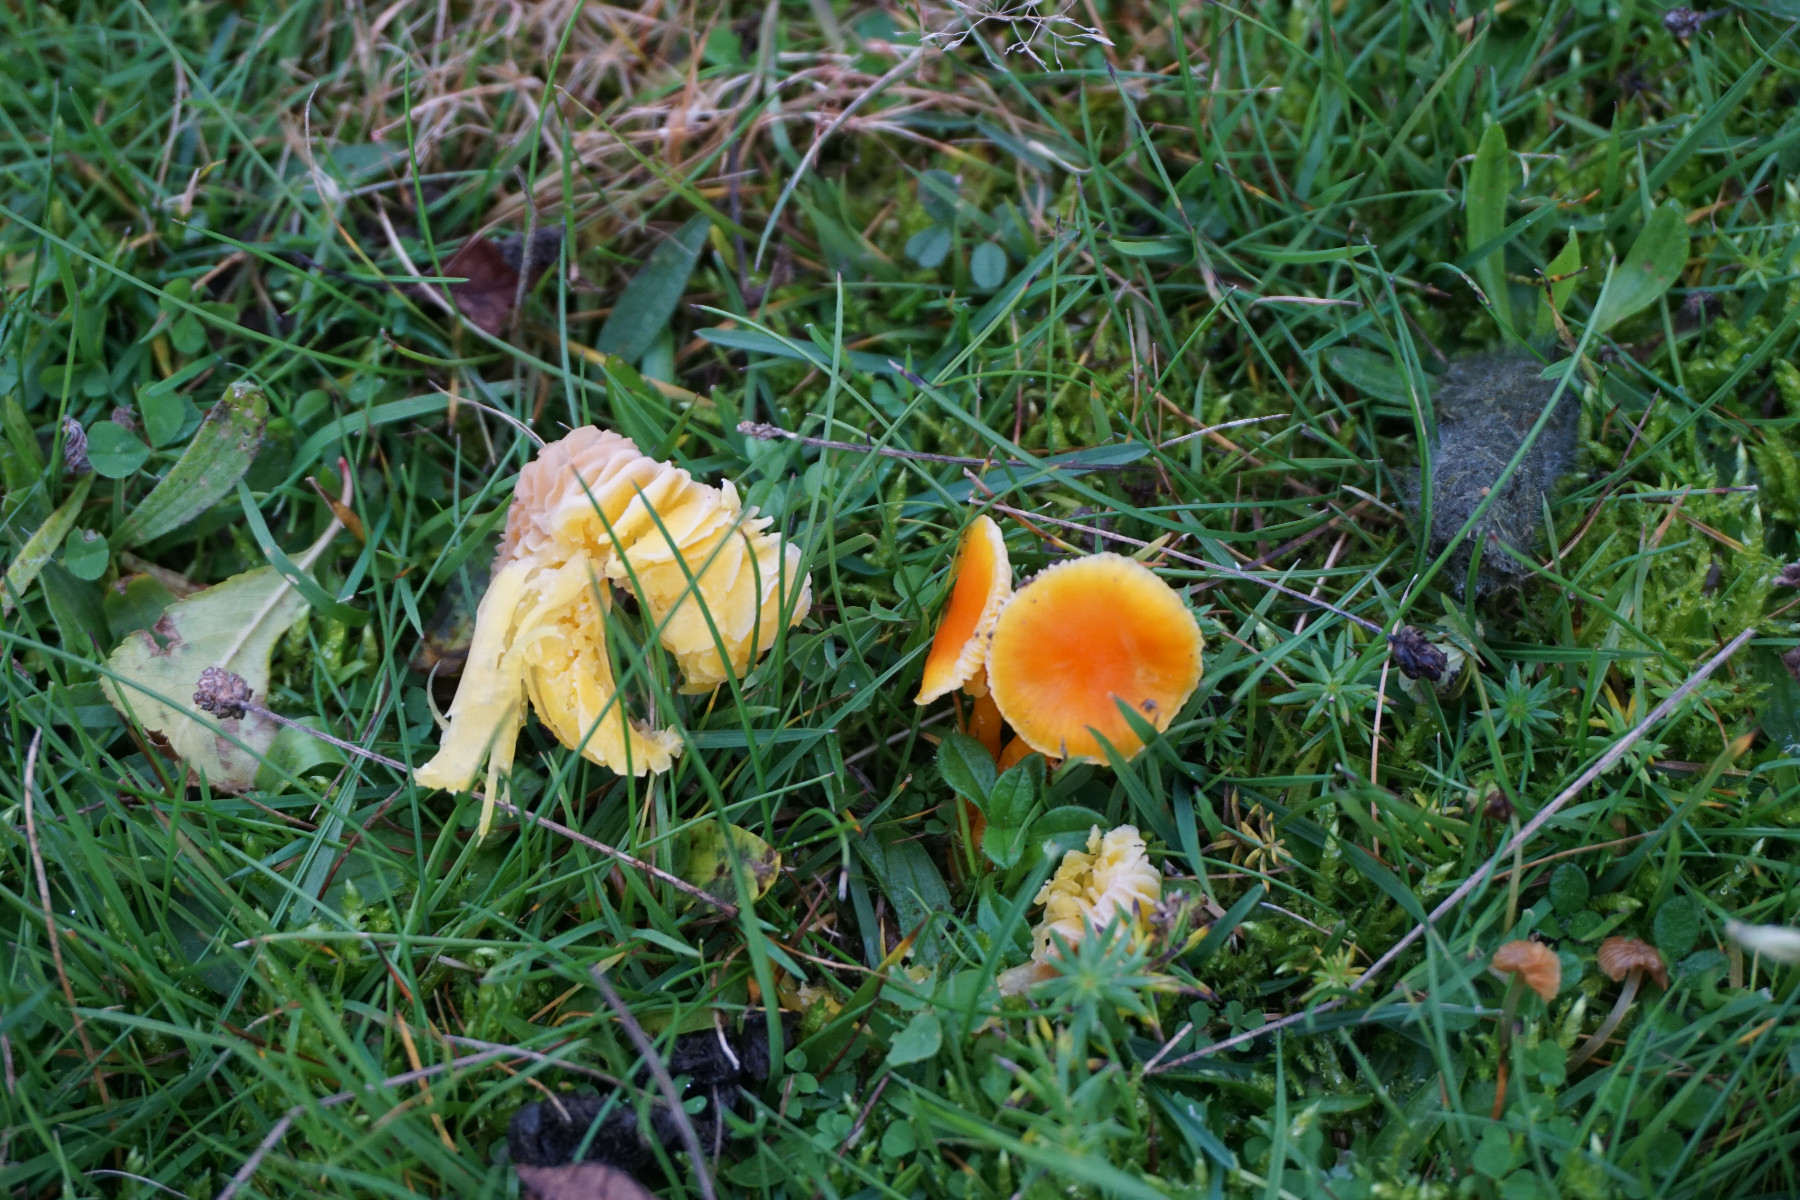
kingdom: Fungi
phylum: Basidiomycota
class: Agaricomycetes
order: Agaricales
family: Hygrophoraceae
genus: Hygrocybe
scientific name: Hygrocybe
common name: vokshat
